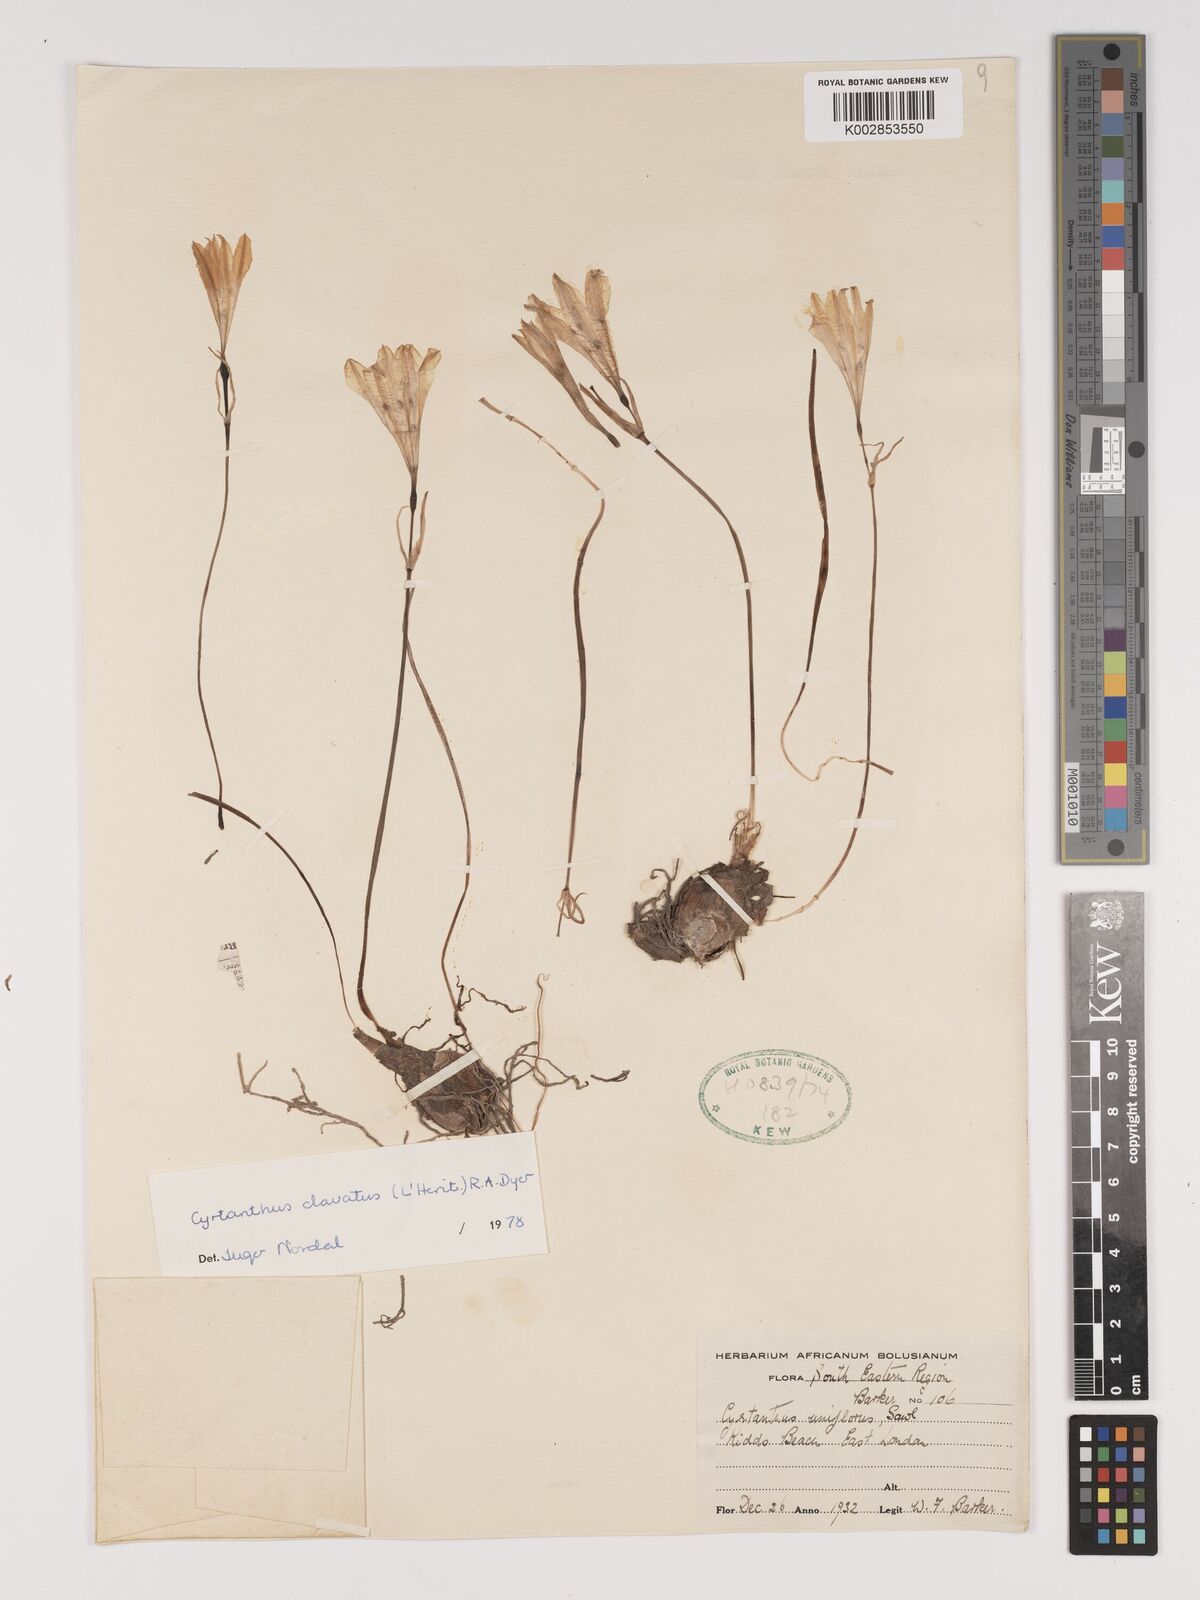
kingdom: Plantae
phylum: Tracheophyta
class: Liliopsida
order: Asparagales
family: Amaryllidaceae
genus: Cyrtanthus
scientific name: Cyrtanthus clavatus
